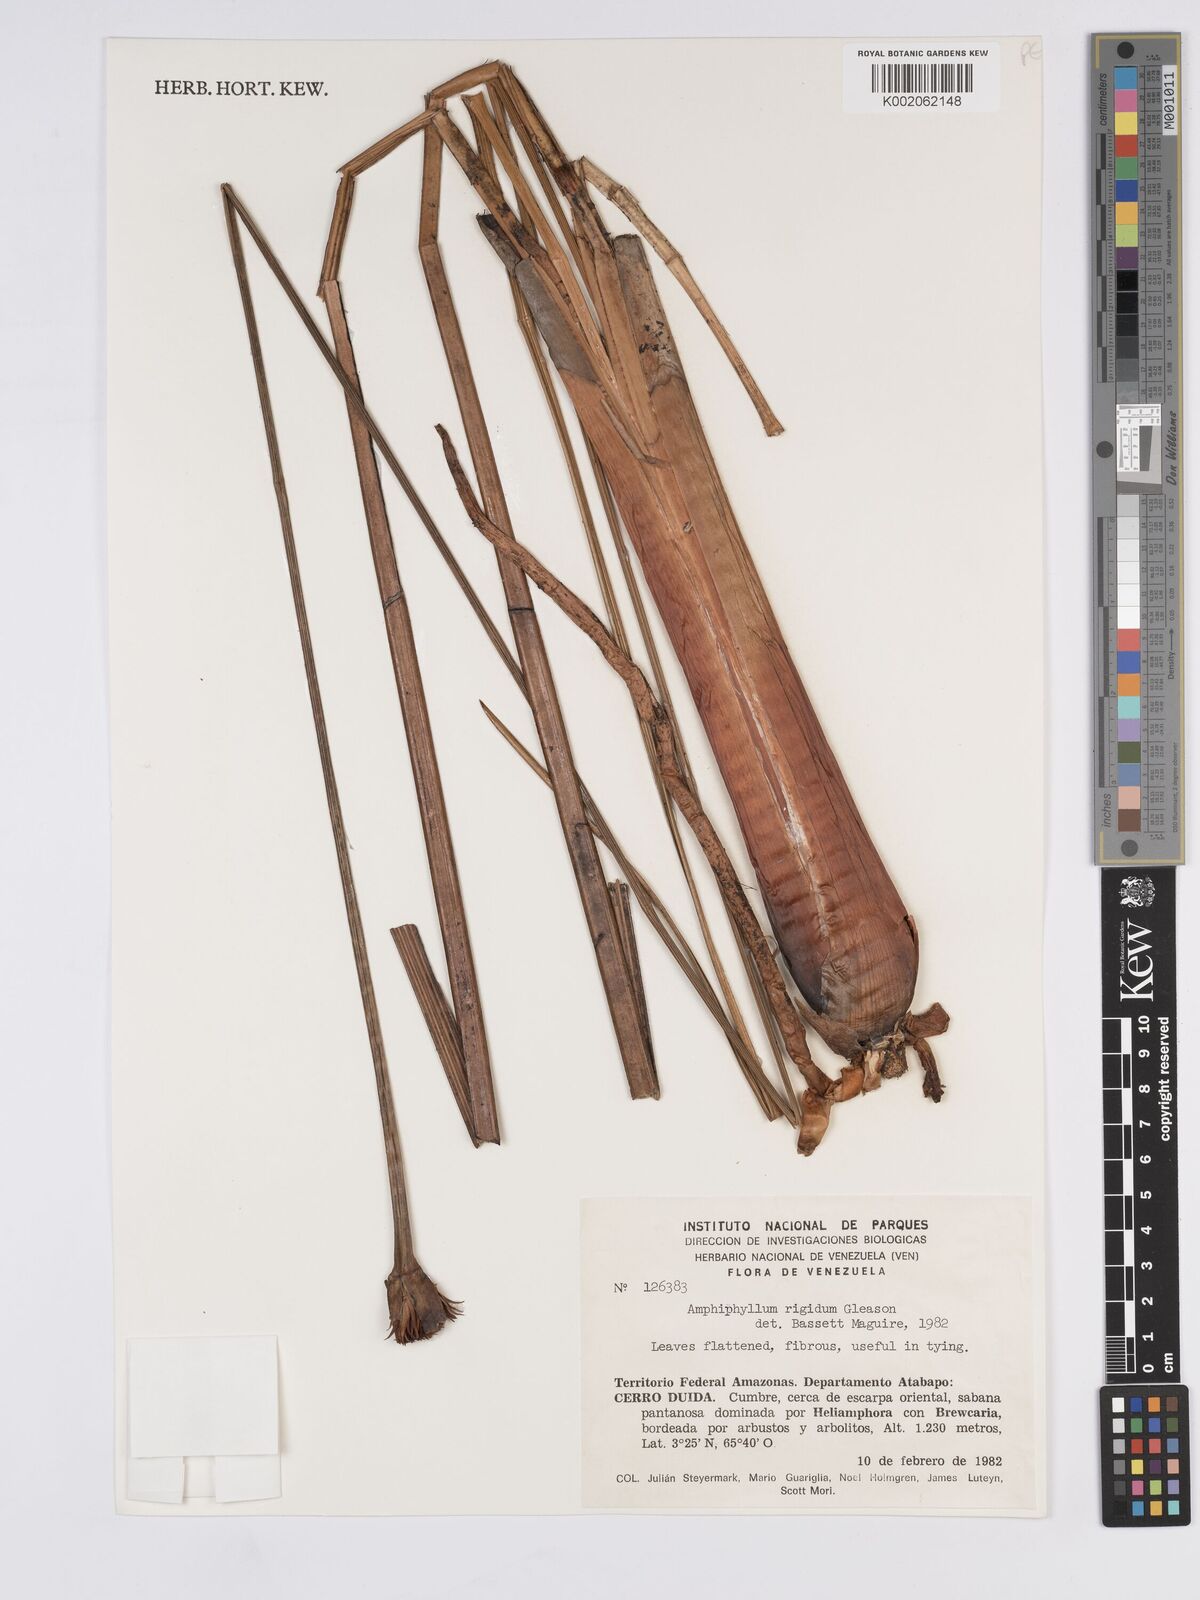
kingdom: Plantae
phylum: Tracheophyta
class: Liliopsida
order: Poales
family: Rapateaceae
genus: Amphiphyllum
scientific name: Amphiphyllum rigidum
